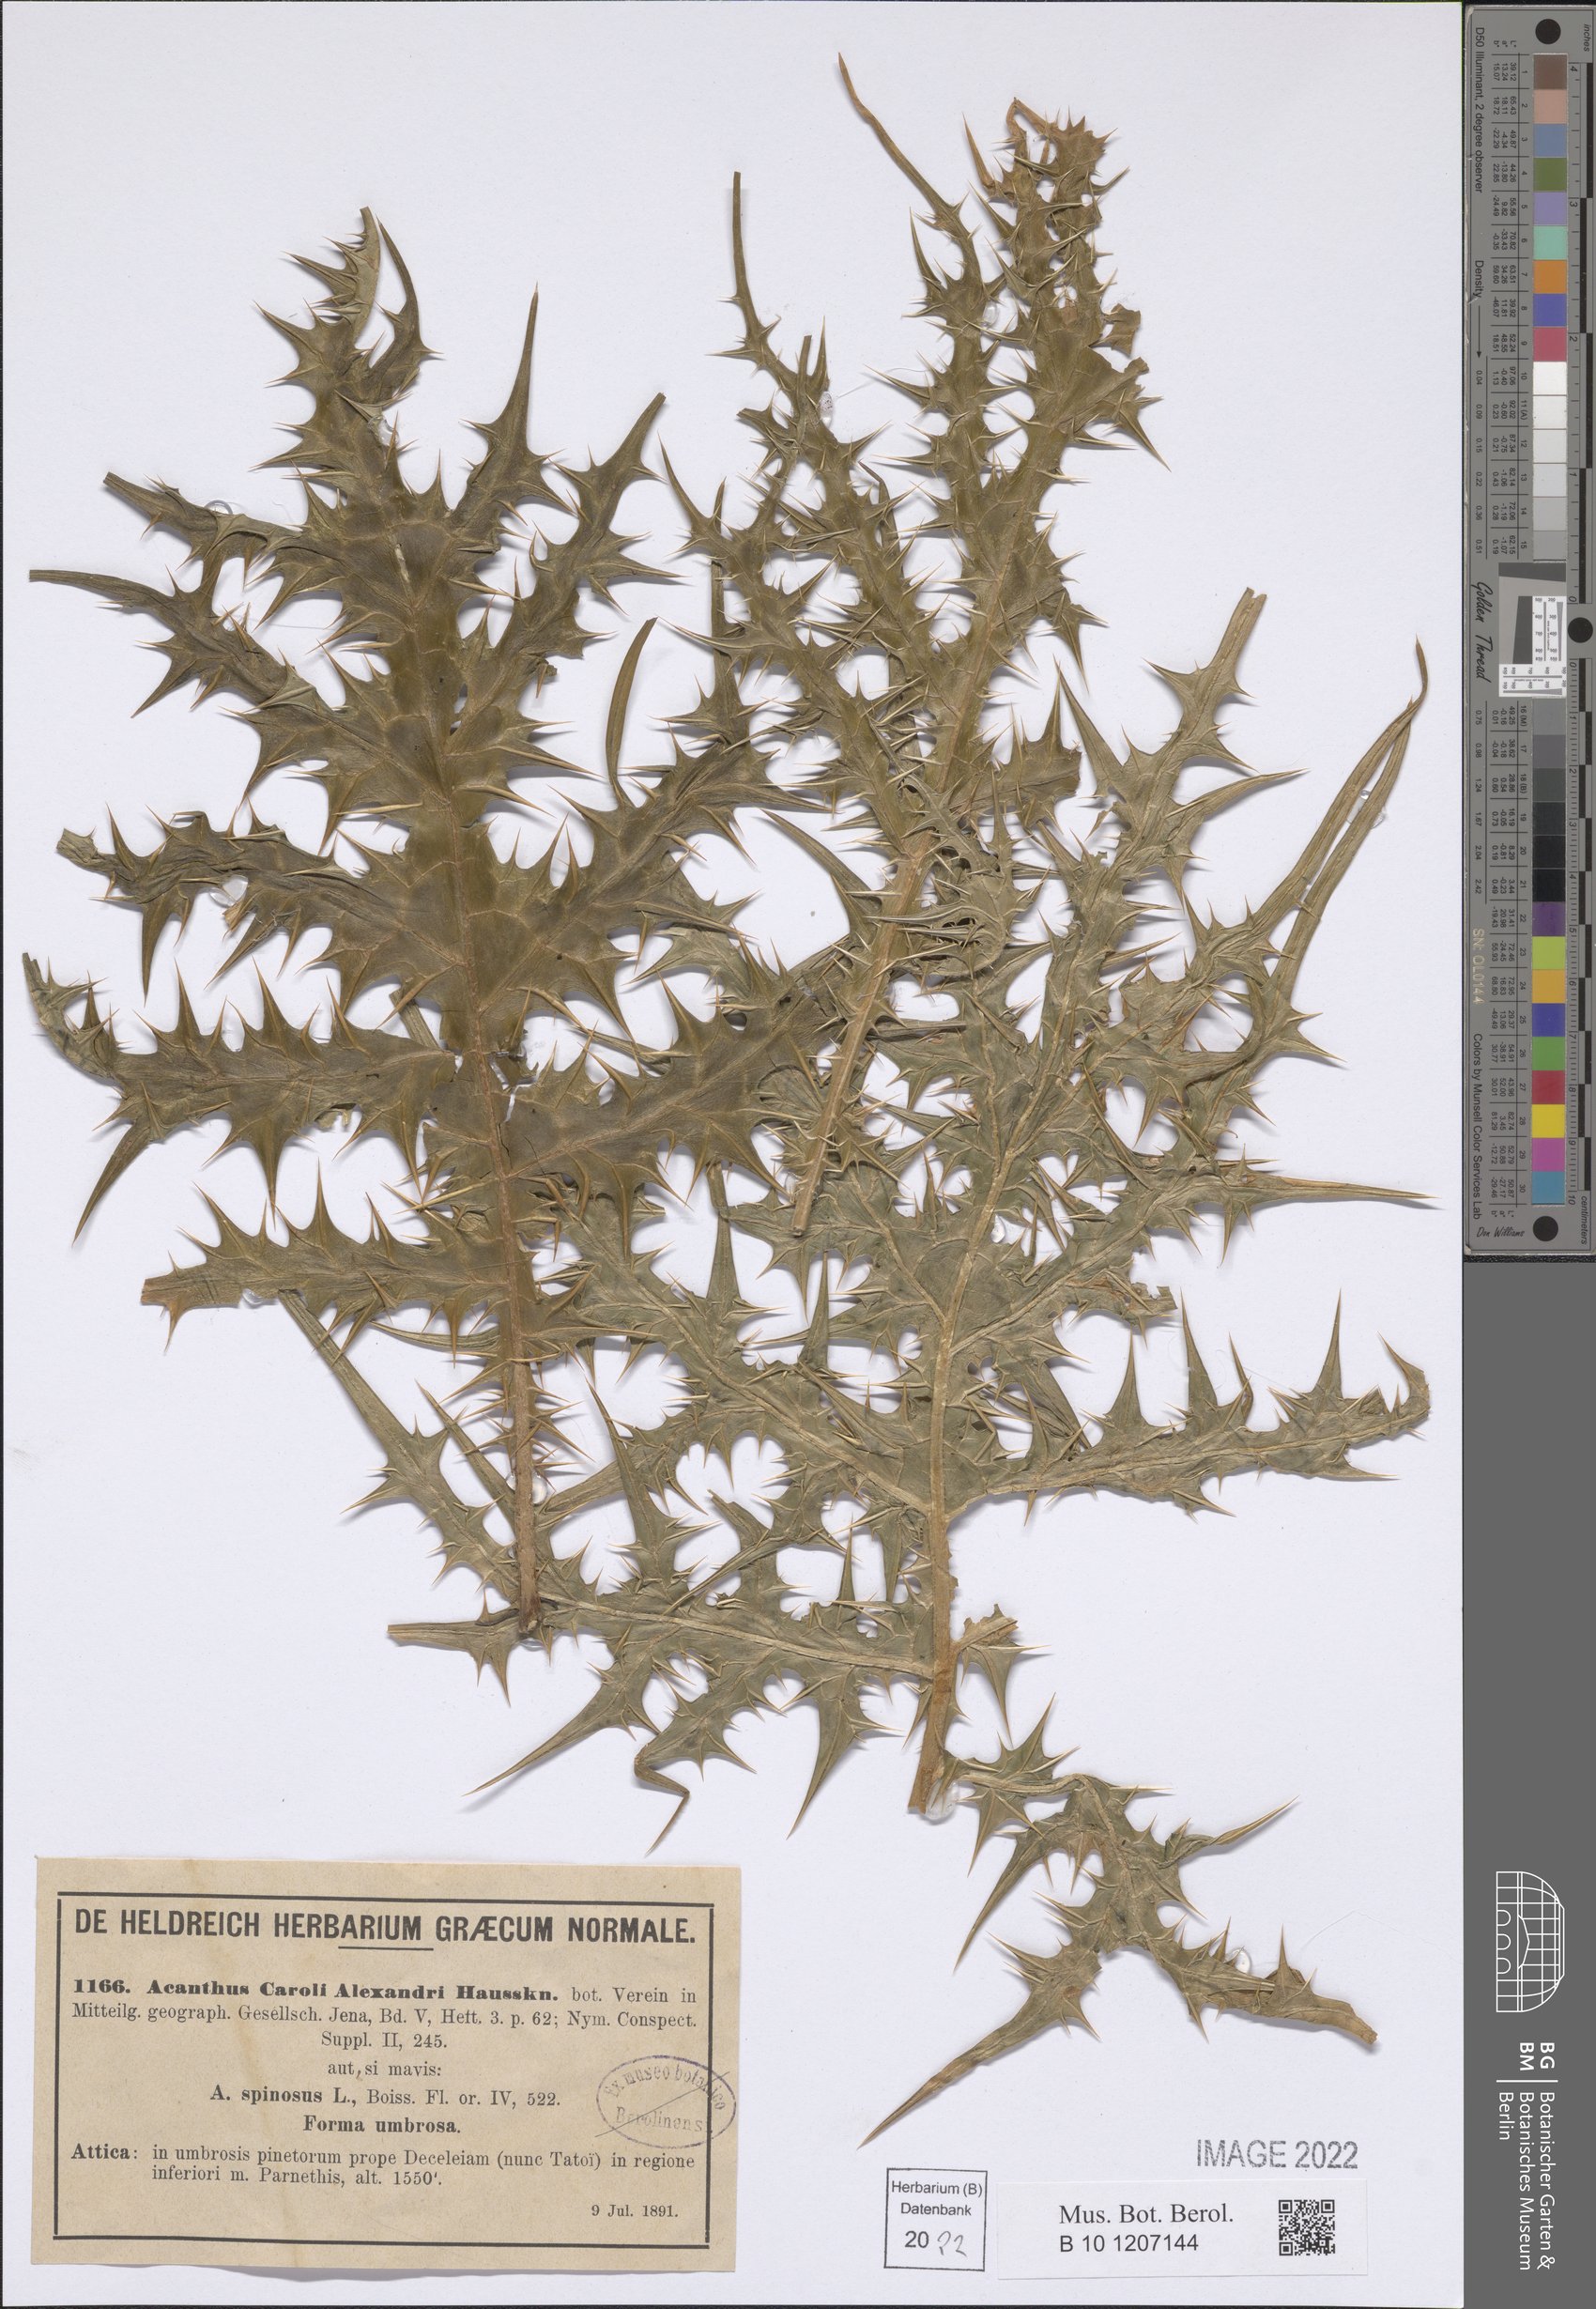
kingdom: Plantae
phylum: Tracheophyta
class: Magnoliopsida
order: Lamiales
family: Acanthaceae
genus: Acanthus
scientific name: Acanthus spinosus
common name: Spiny bear's-breech
